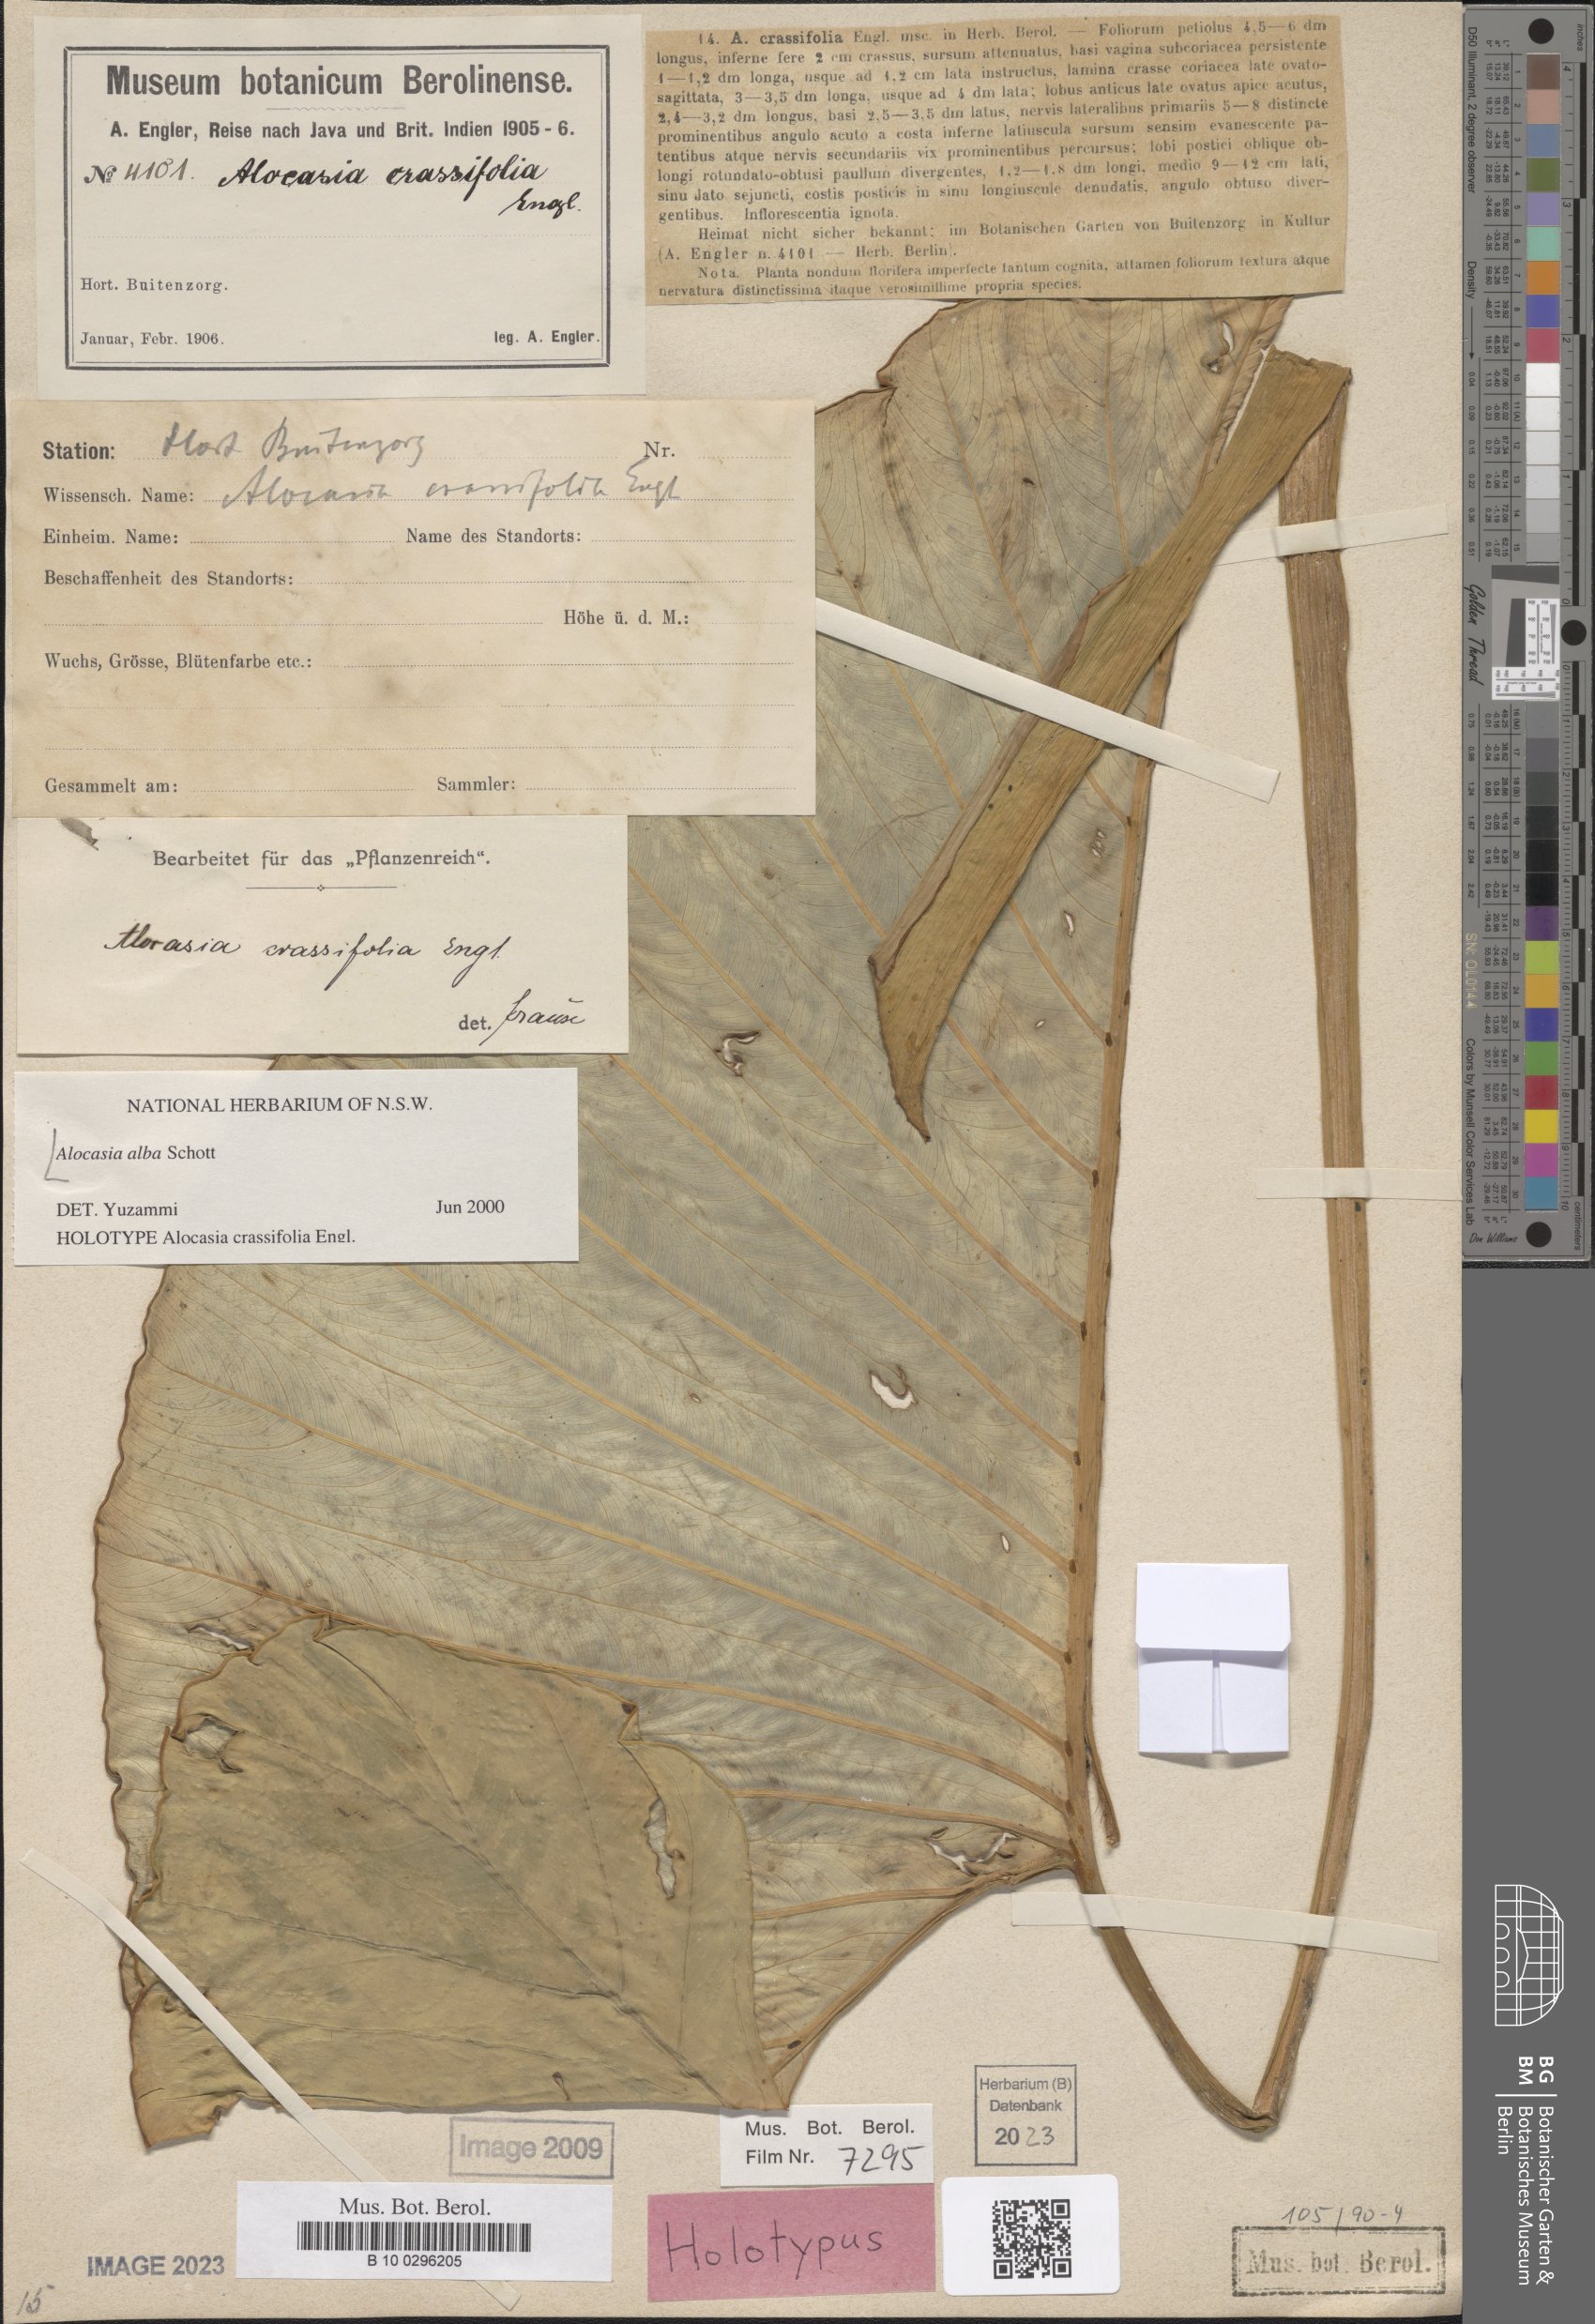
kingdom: Plantae
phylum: Tracheophyta
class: Liliopsida
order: Alismatales
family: Araceae
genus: Alocasia
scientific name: Alocasia alba
